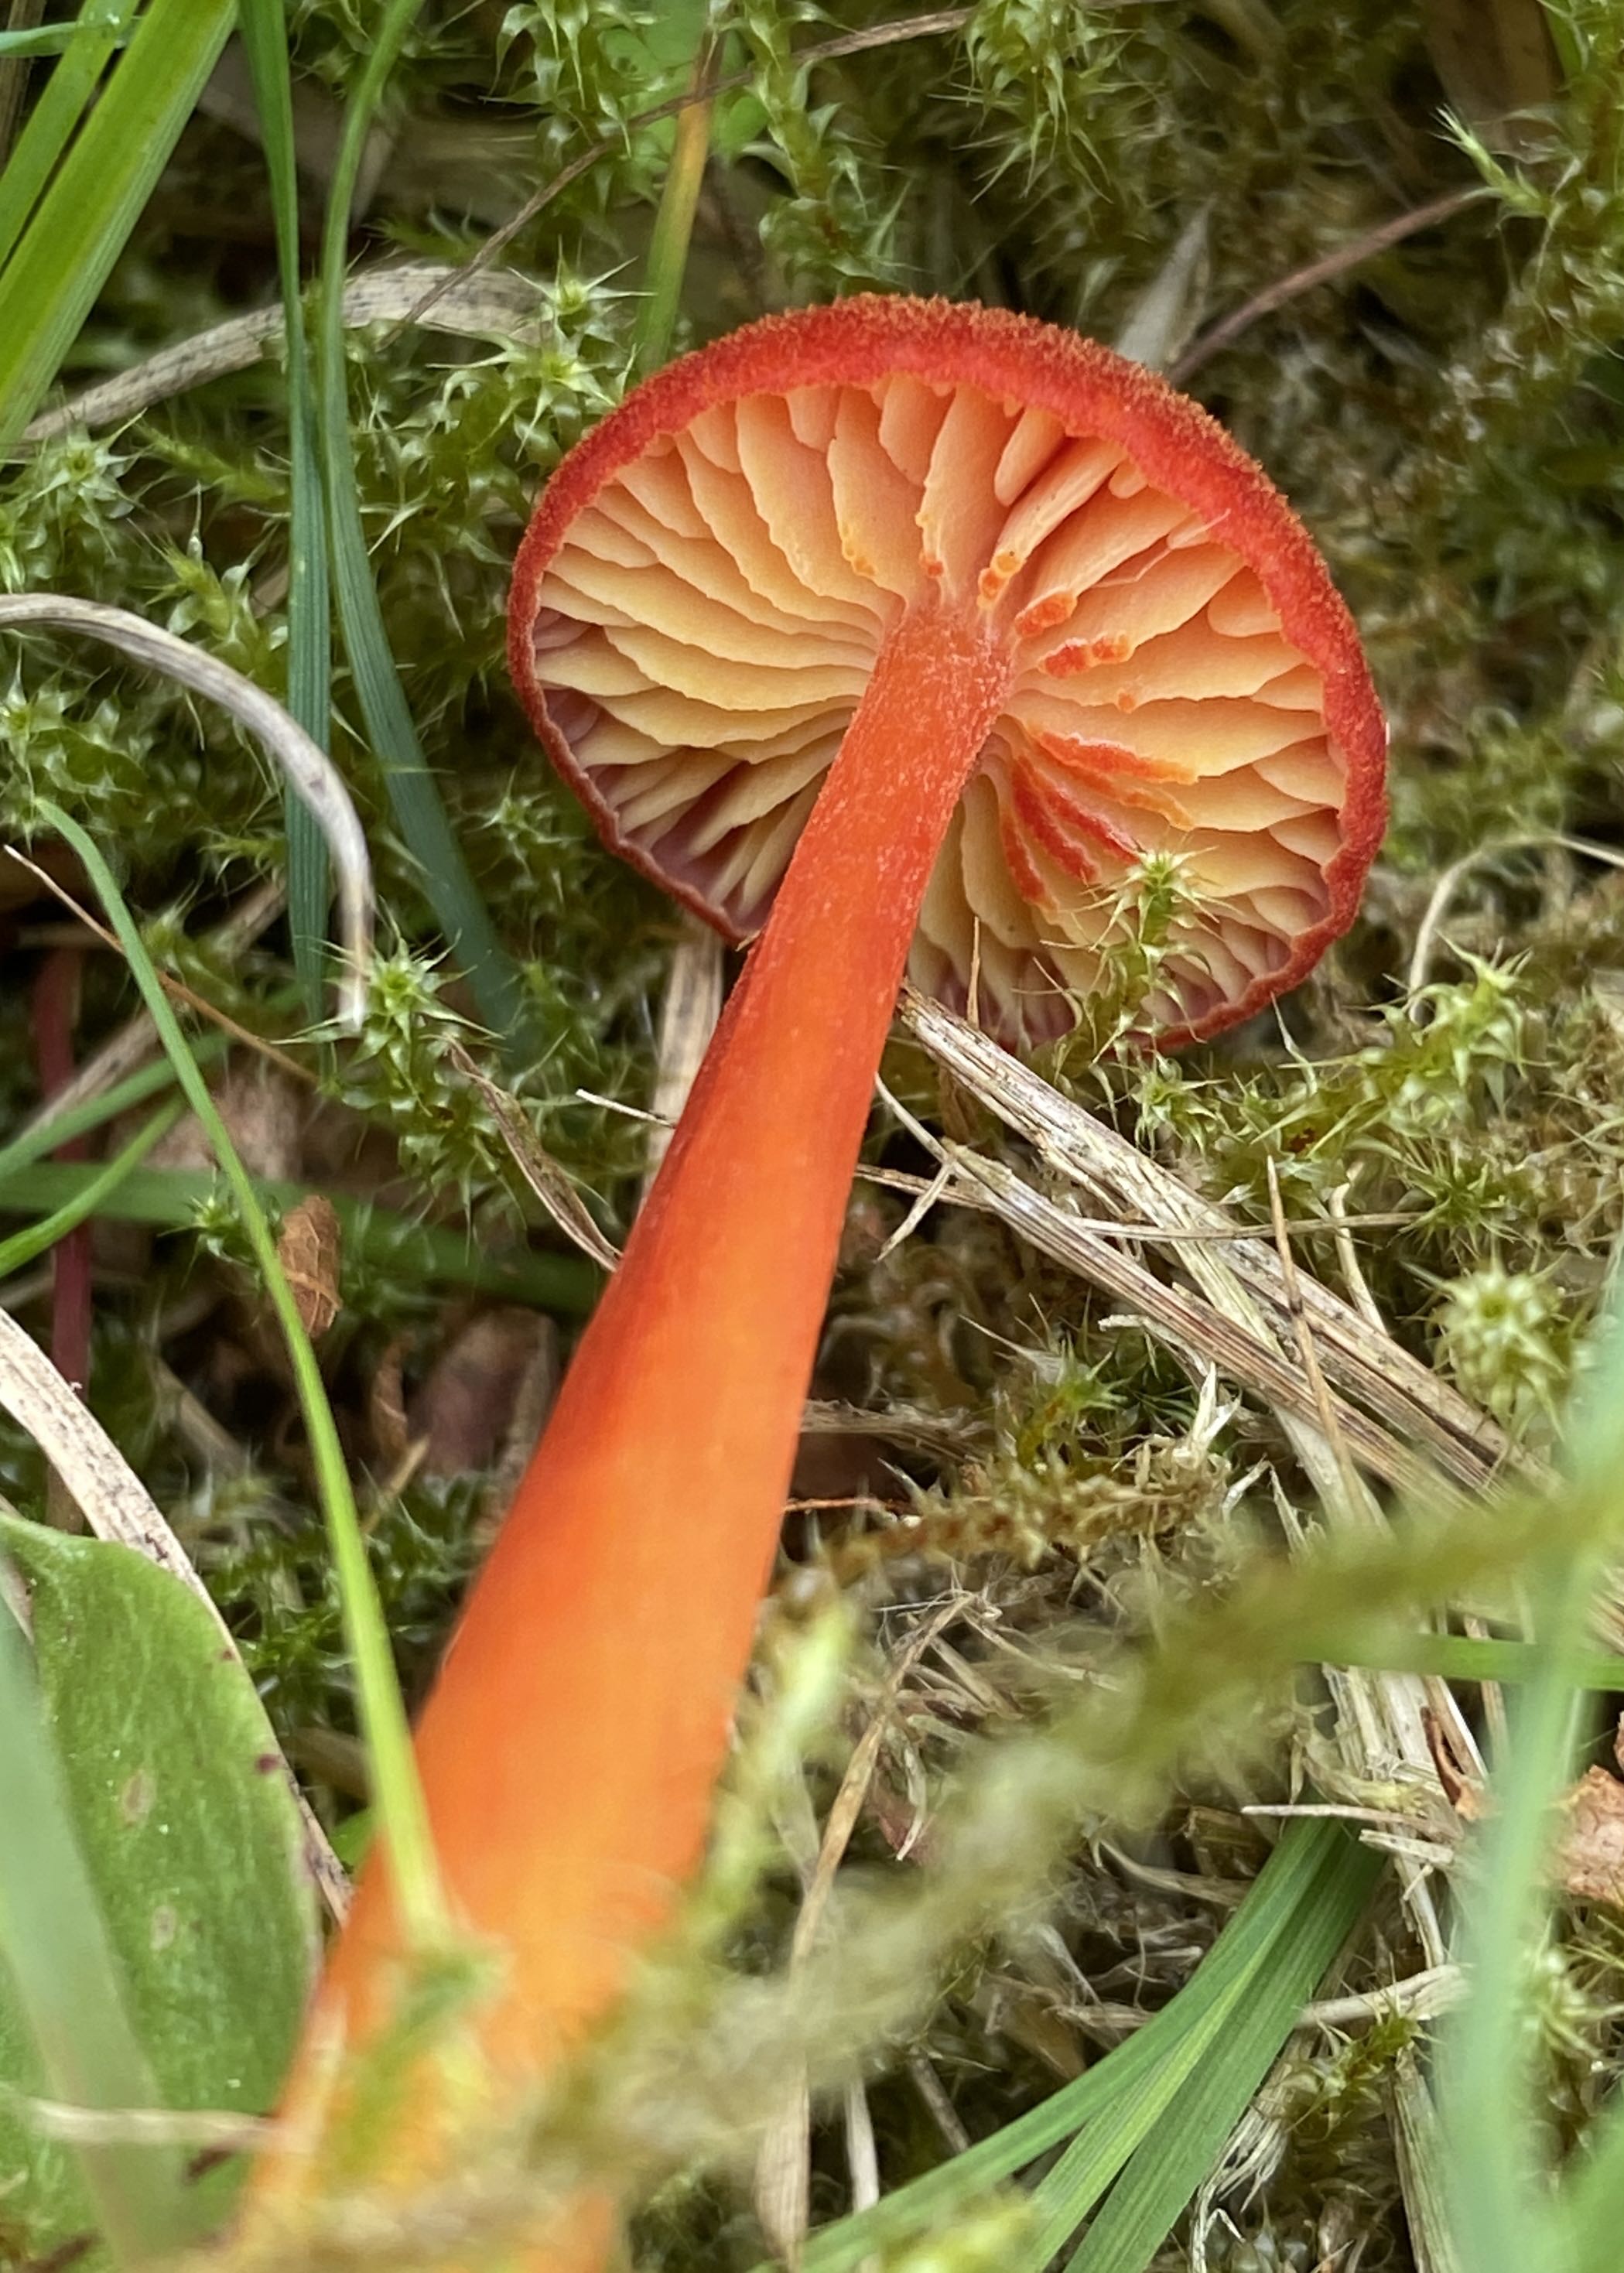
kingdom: Fungi
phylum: Basidiomycota
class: Agaricomycetes
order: Agaricales
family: Hygrophoraceae
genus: Hygrocybe
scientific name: Hygrocybe helobia
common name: hvidløgs-vokshat
